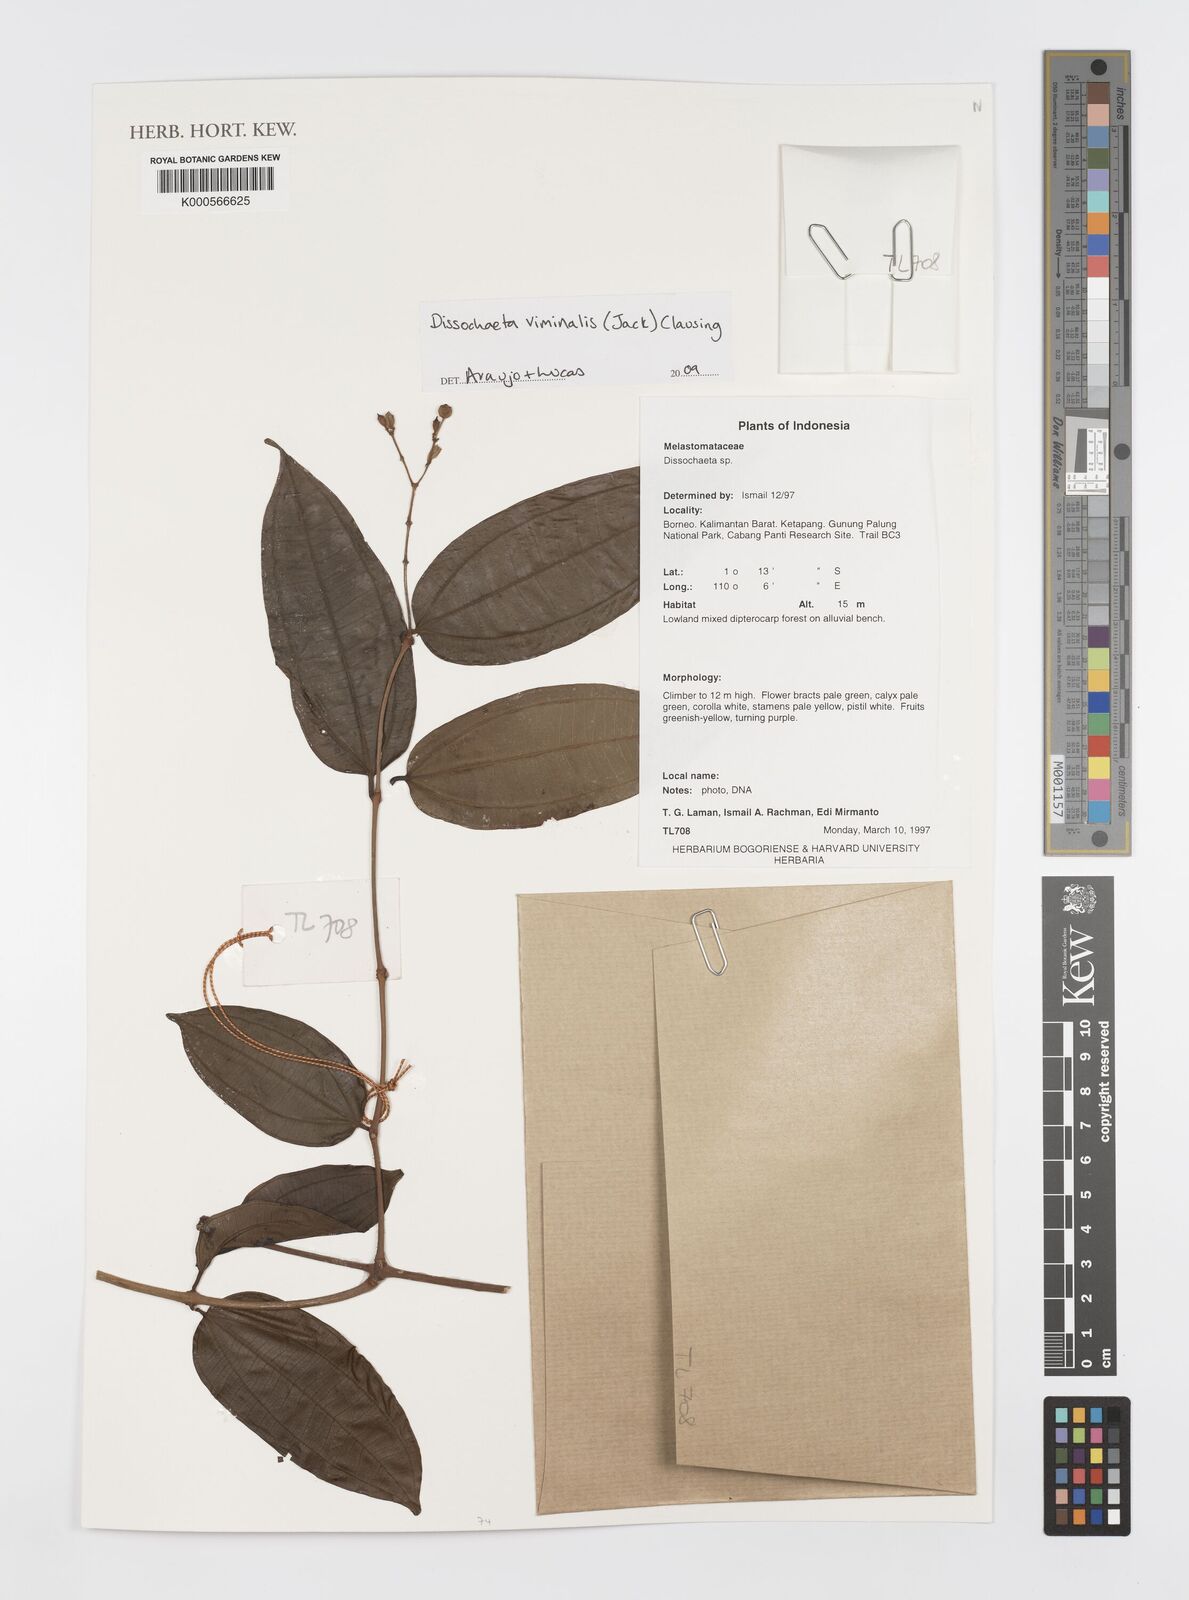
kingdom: Plantae
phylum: Tracheophyta
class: Magnoliopsida
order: Myrtales
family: Melastomataceae
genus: Diplectria
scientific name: Diplectria viminalis
